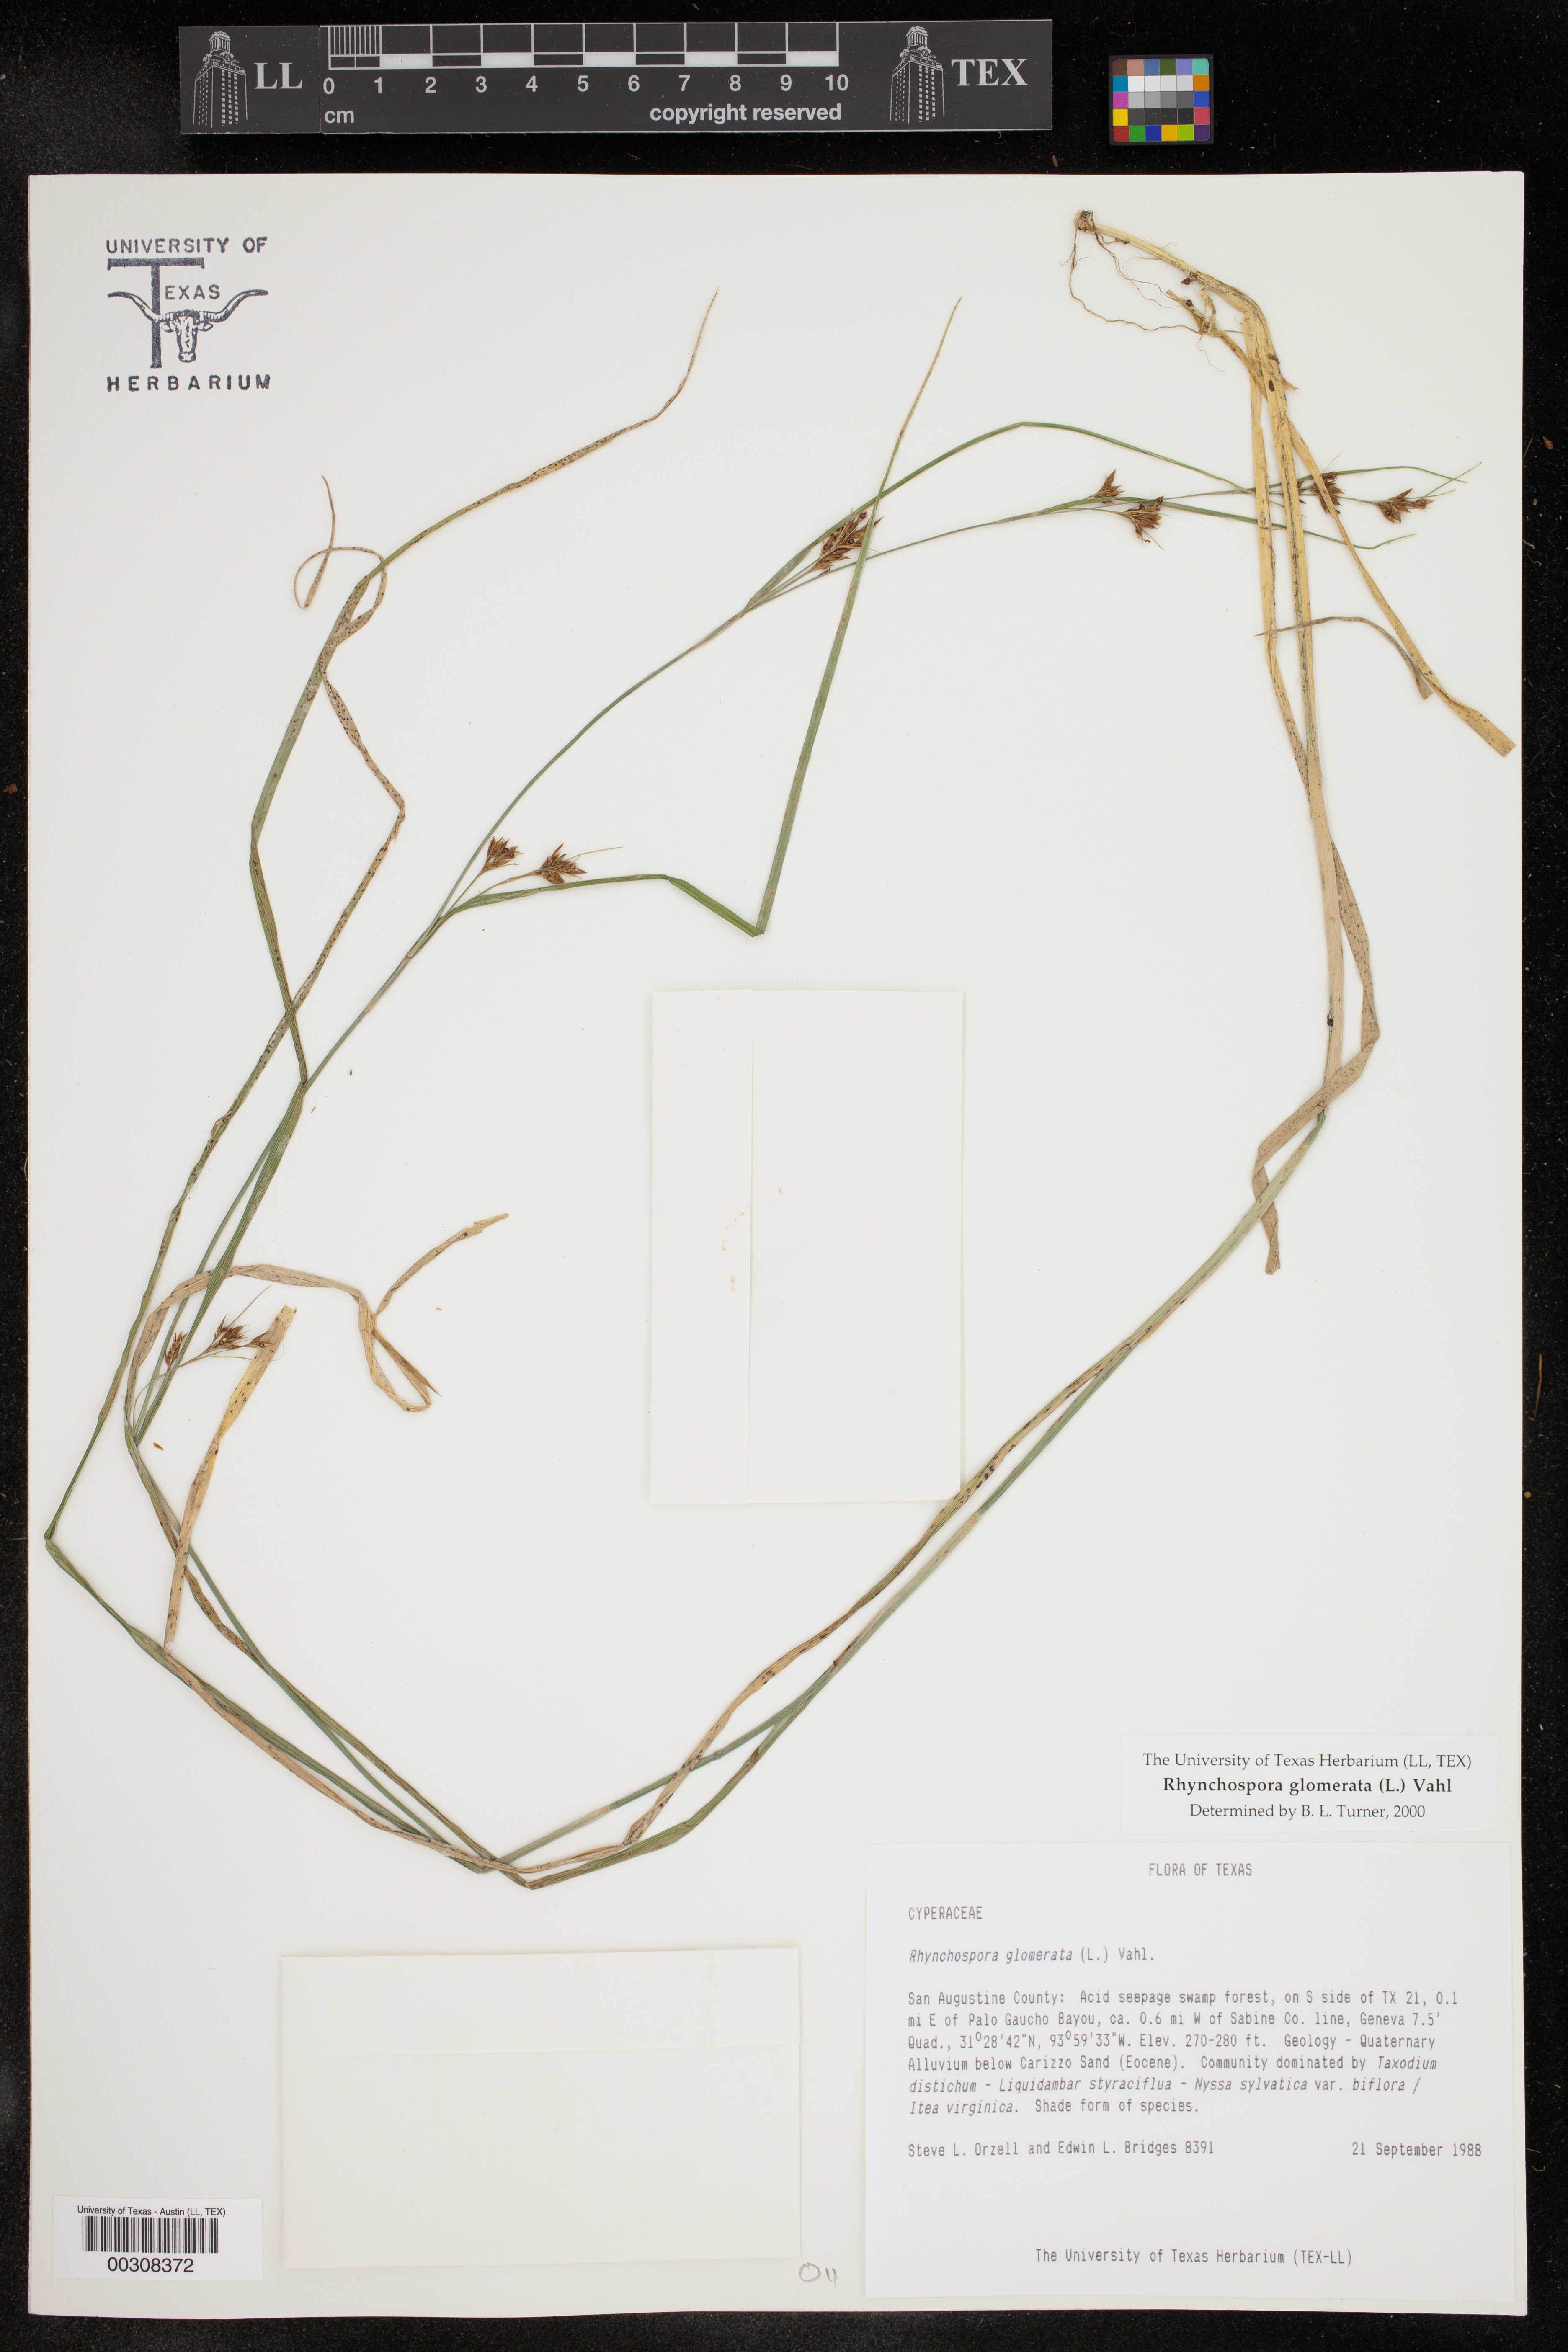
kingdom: Plantae
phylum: Tracheophyta
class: Liliopsida
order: Poales
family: Cyperaceae
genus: Rhynchospora
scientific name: Rhynchospora glomerata
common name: Cluster beak sedge
